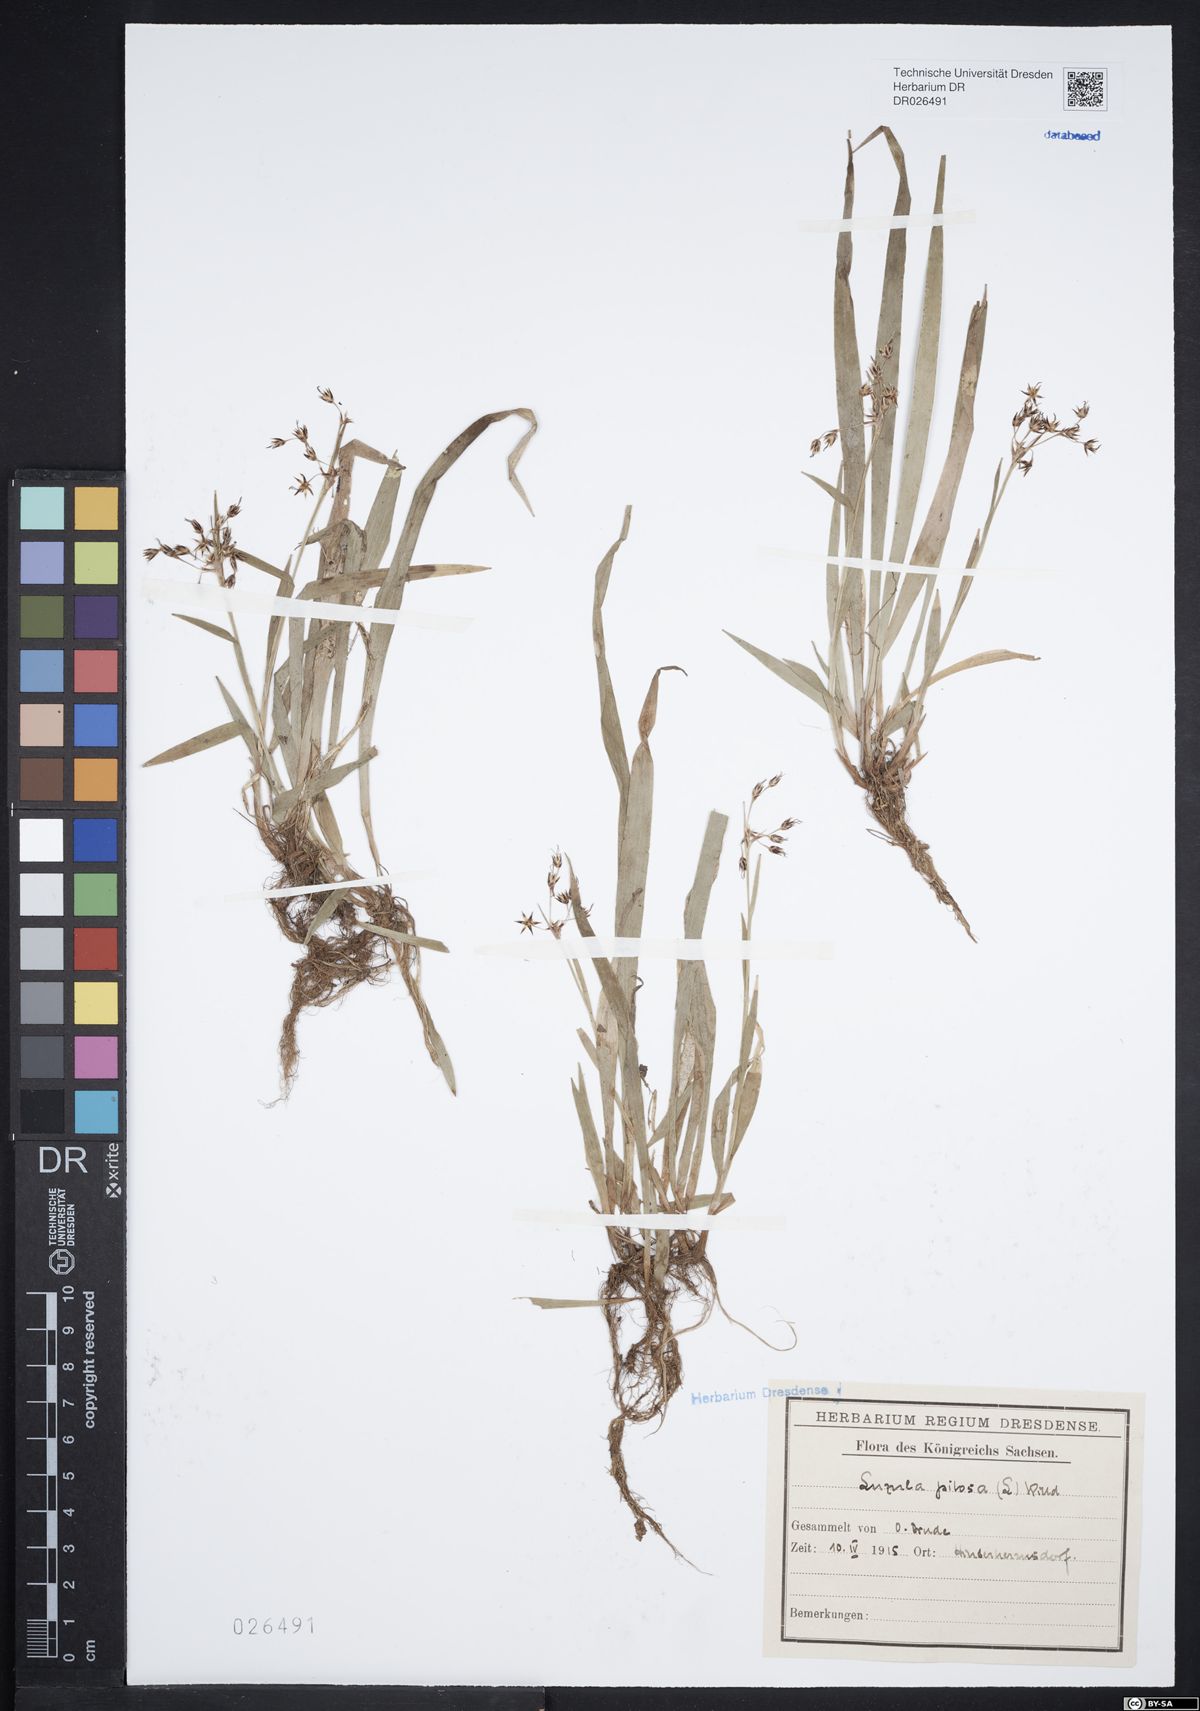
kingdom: Plantae
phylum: Tracheophyta
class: Liliopsida
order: Poales
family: Juncaceae
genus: Luzula
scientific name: Luzula pilosa
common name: Hairy wood-rush
